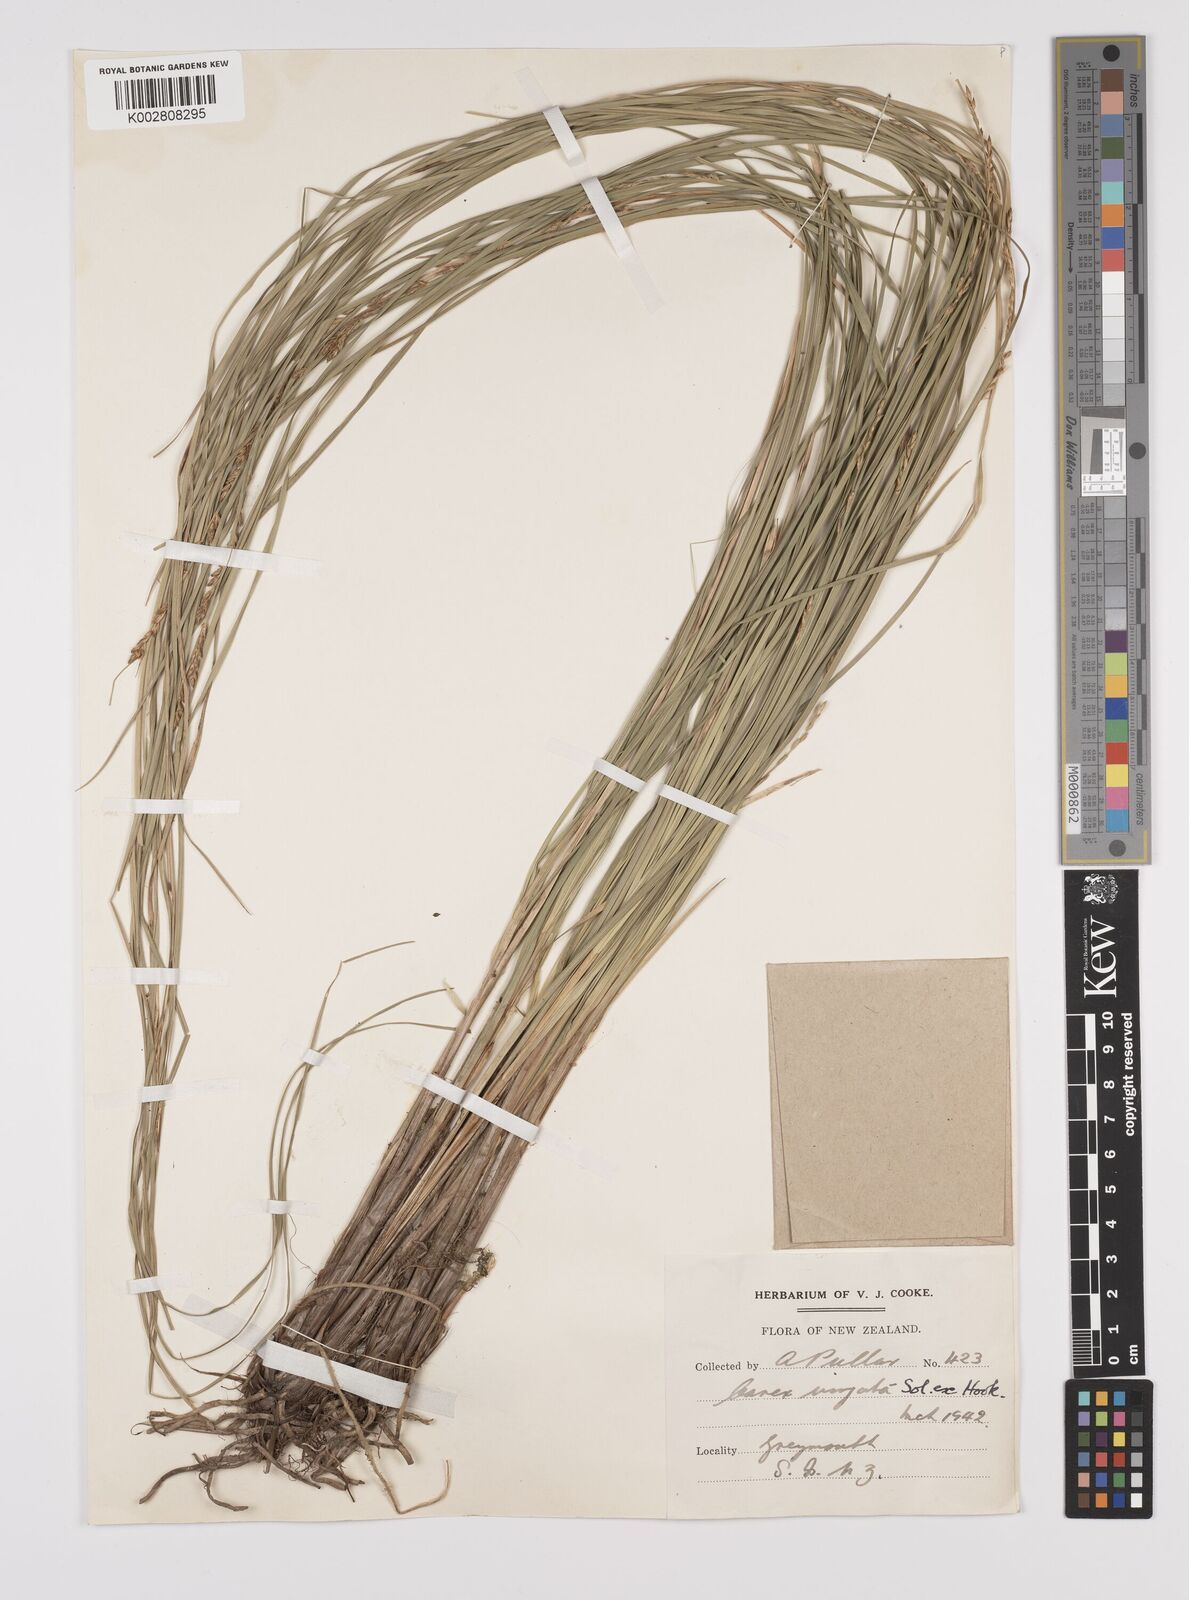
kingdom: Plantae
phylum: Tracheophyta
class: Liliopsida
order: Poales
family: Cyperaceae
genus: Carex
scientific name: Carex appressa
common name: Tussock sedge
